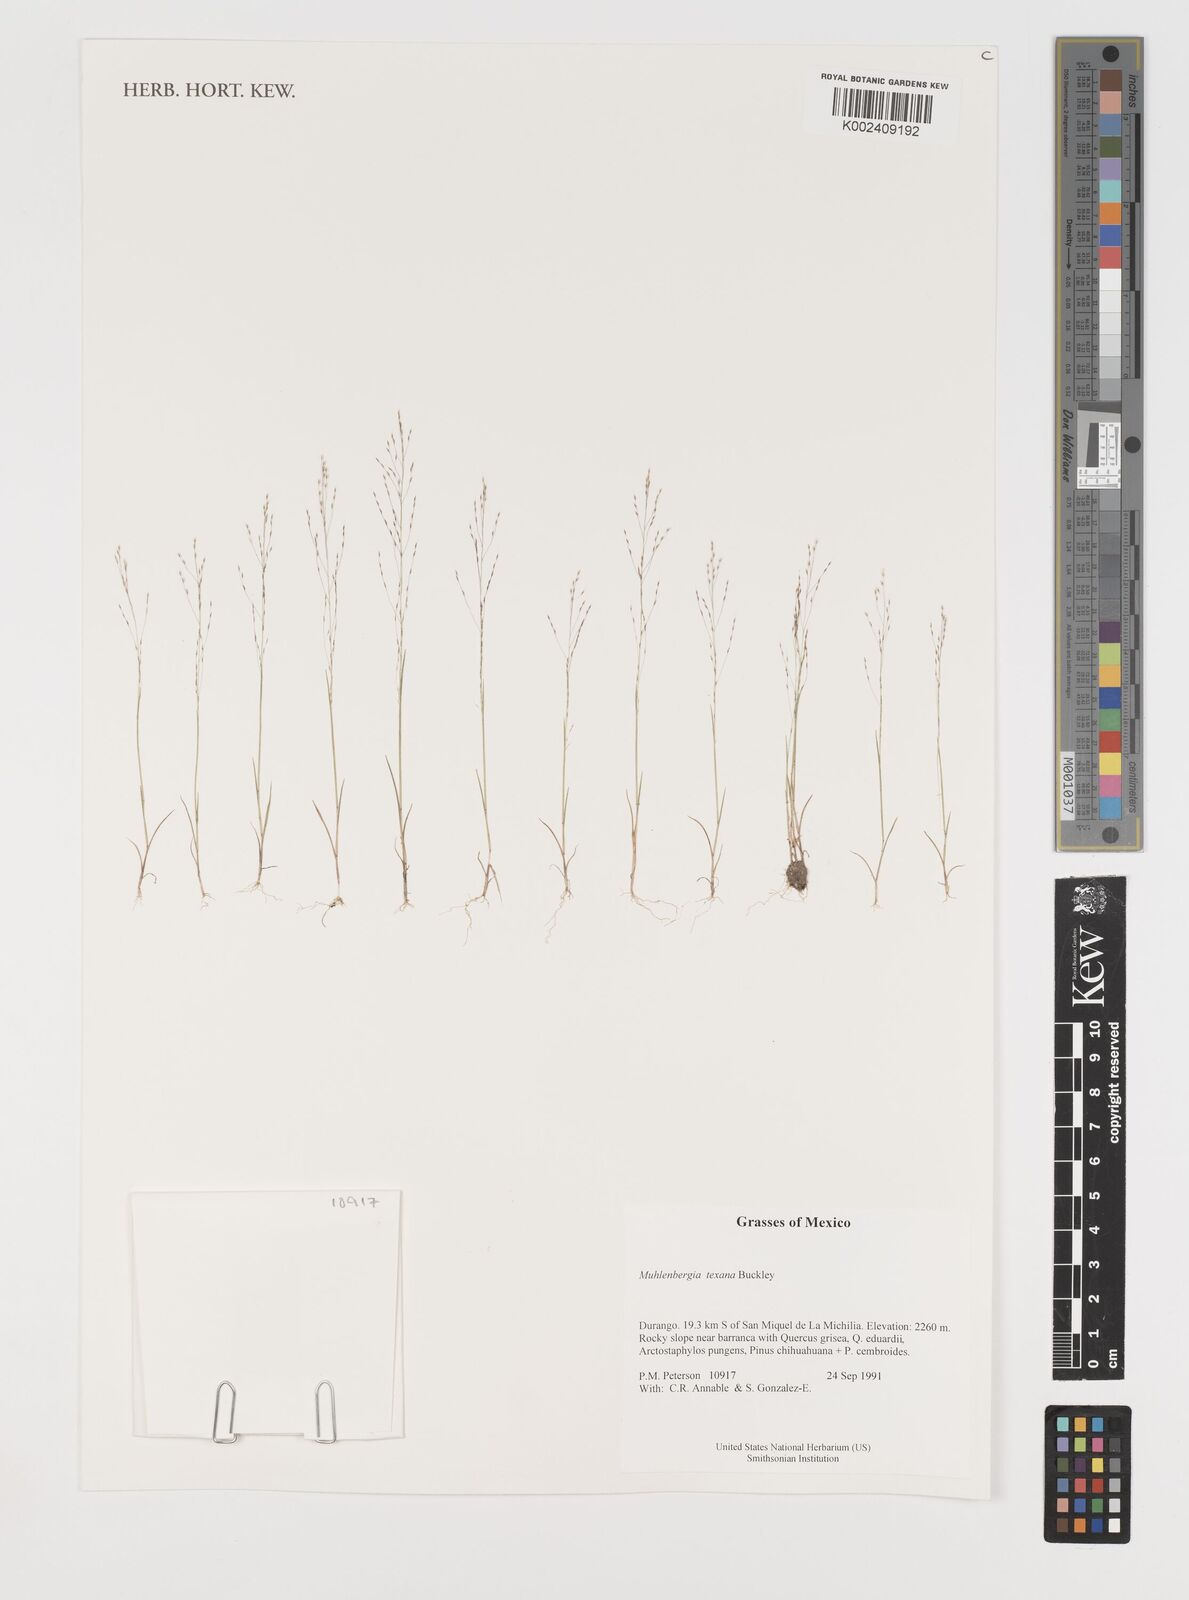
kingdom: Plantae
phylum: Tracheophyta
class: Liliopsida
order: Poales
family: Poaceae
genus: Muhlenbergia
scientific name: Muhlenbergia texana
